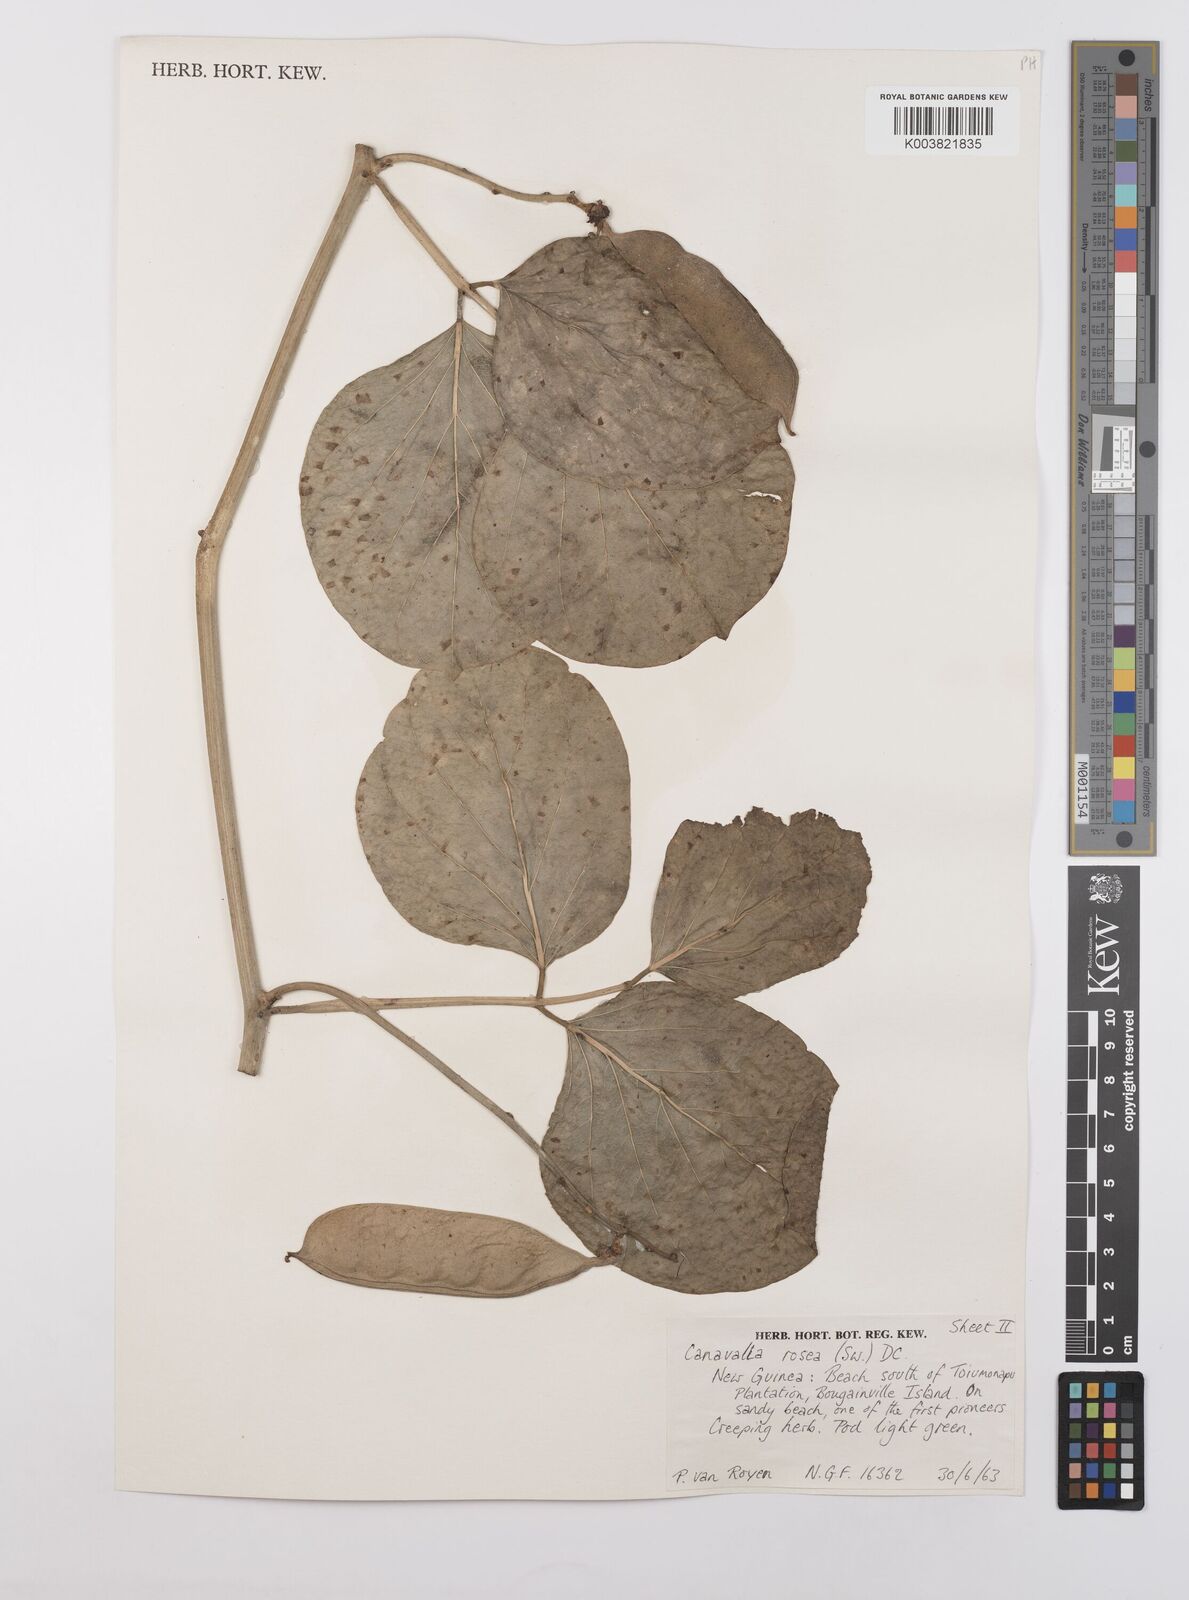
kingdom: Plantae
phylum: Tracheophyta
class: Magnoliopsida
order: Fabales
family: Fabaceae
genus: Canavalia
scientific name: Canavalia rosea
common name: Beach-bean
